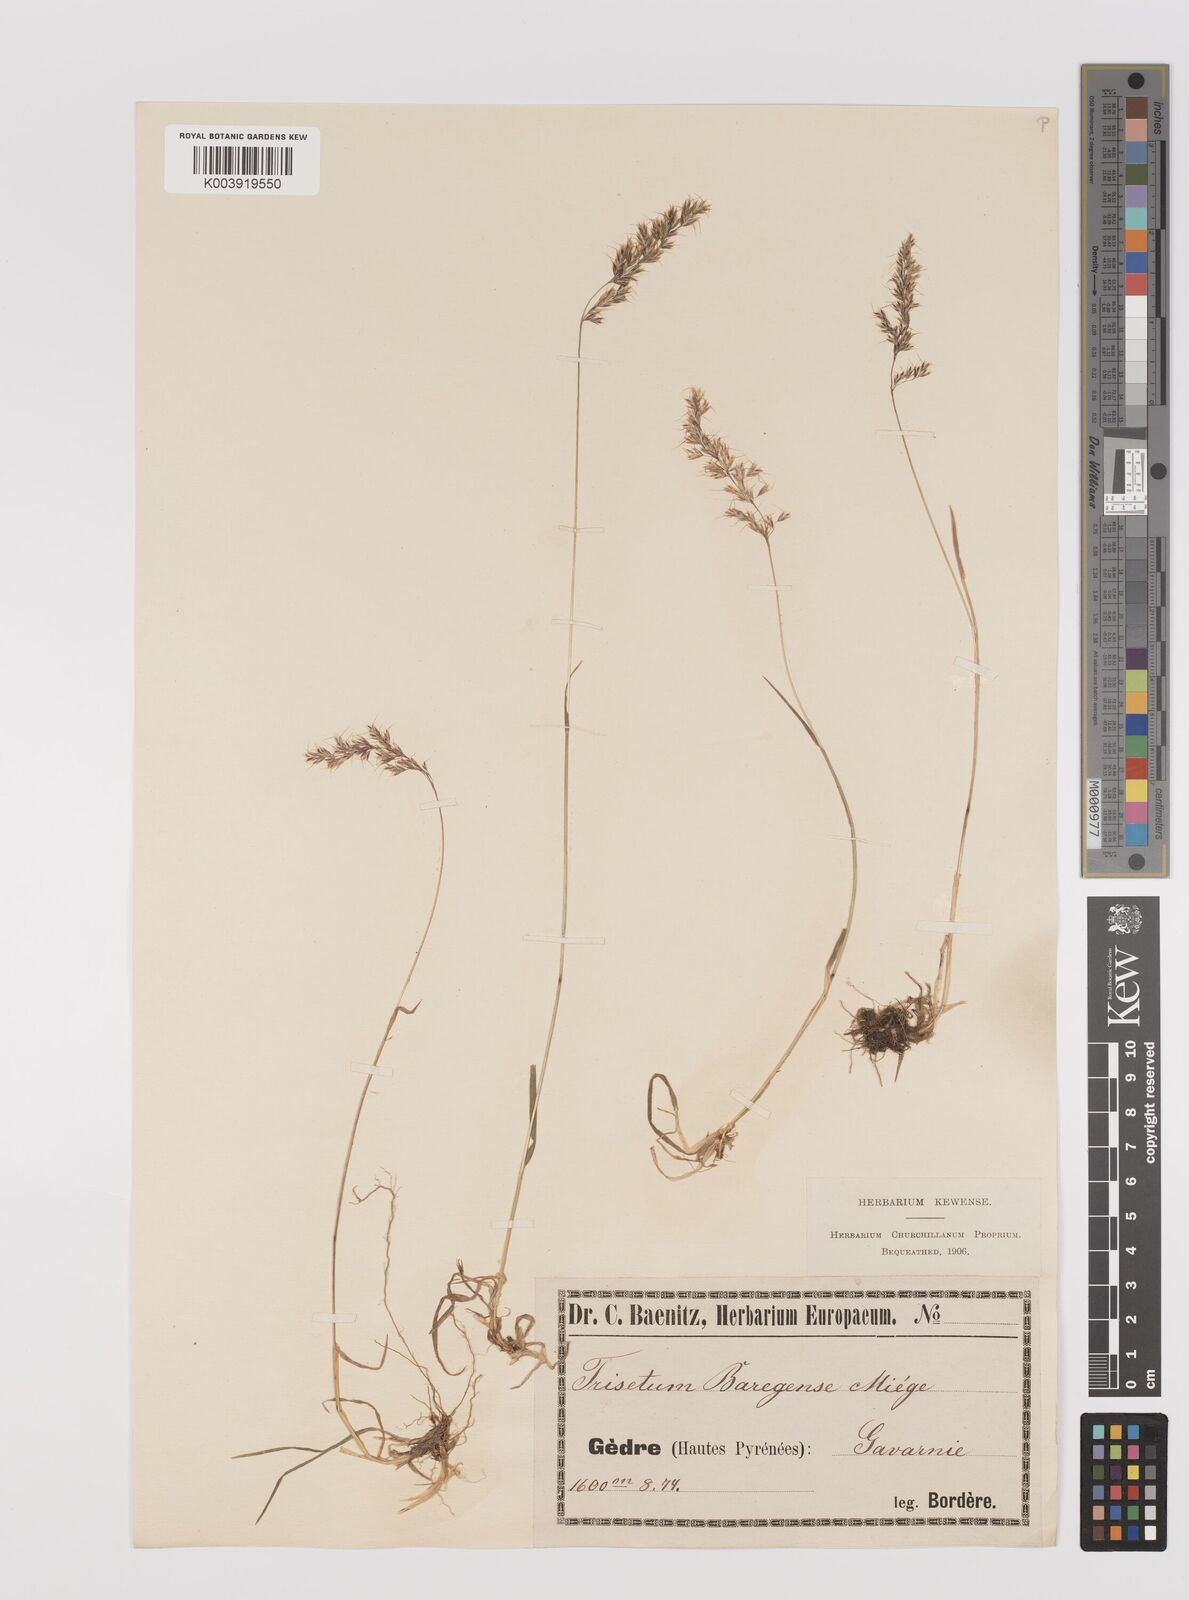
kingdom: Plantae
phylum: Tracheophyta
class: Liliopsida
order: Poales
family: Poaceae
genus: Trisetum
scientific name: Trisetum alpestre
